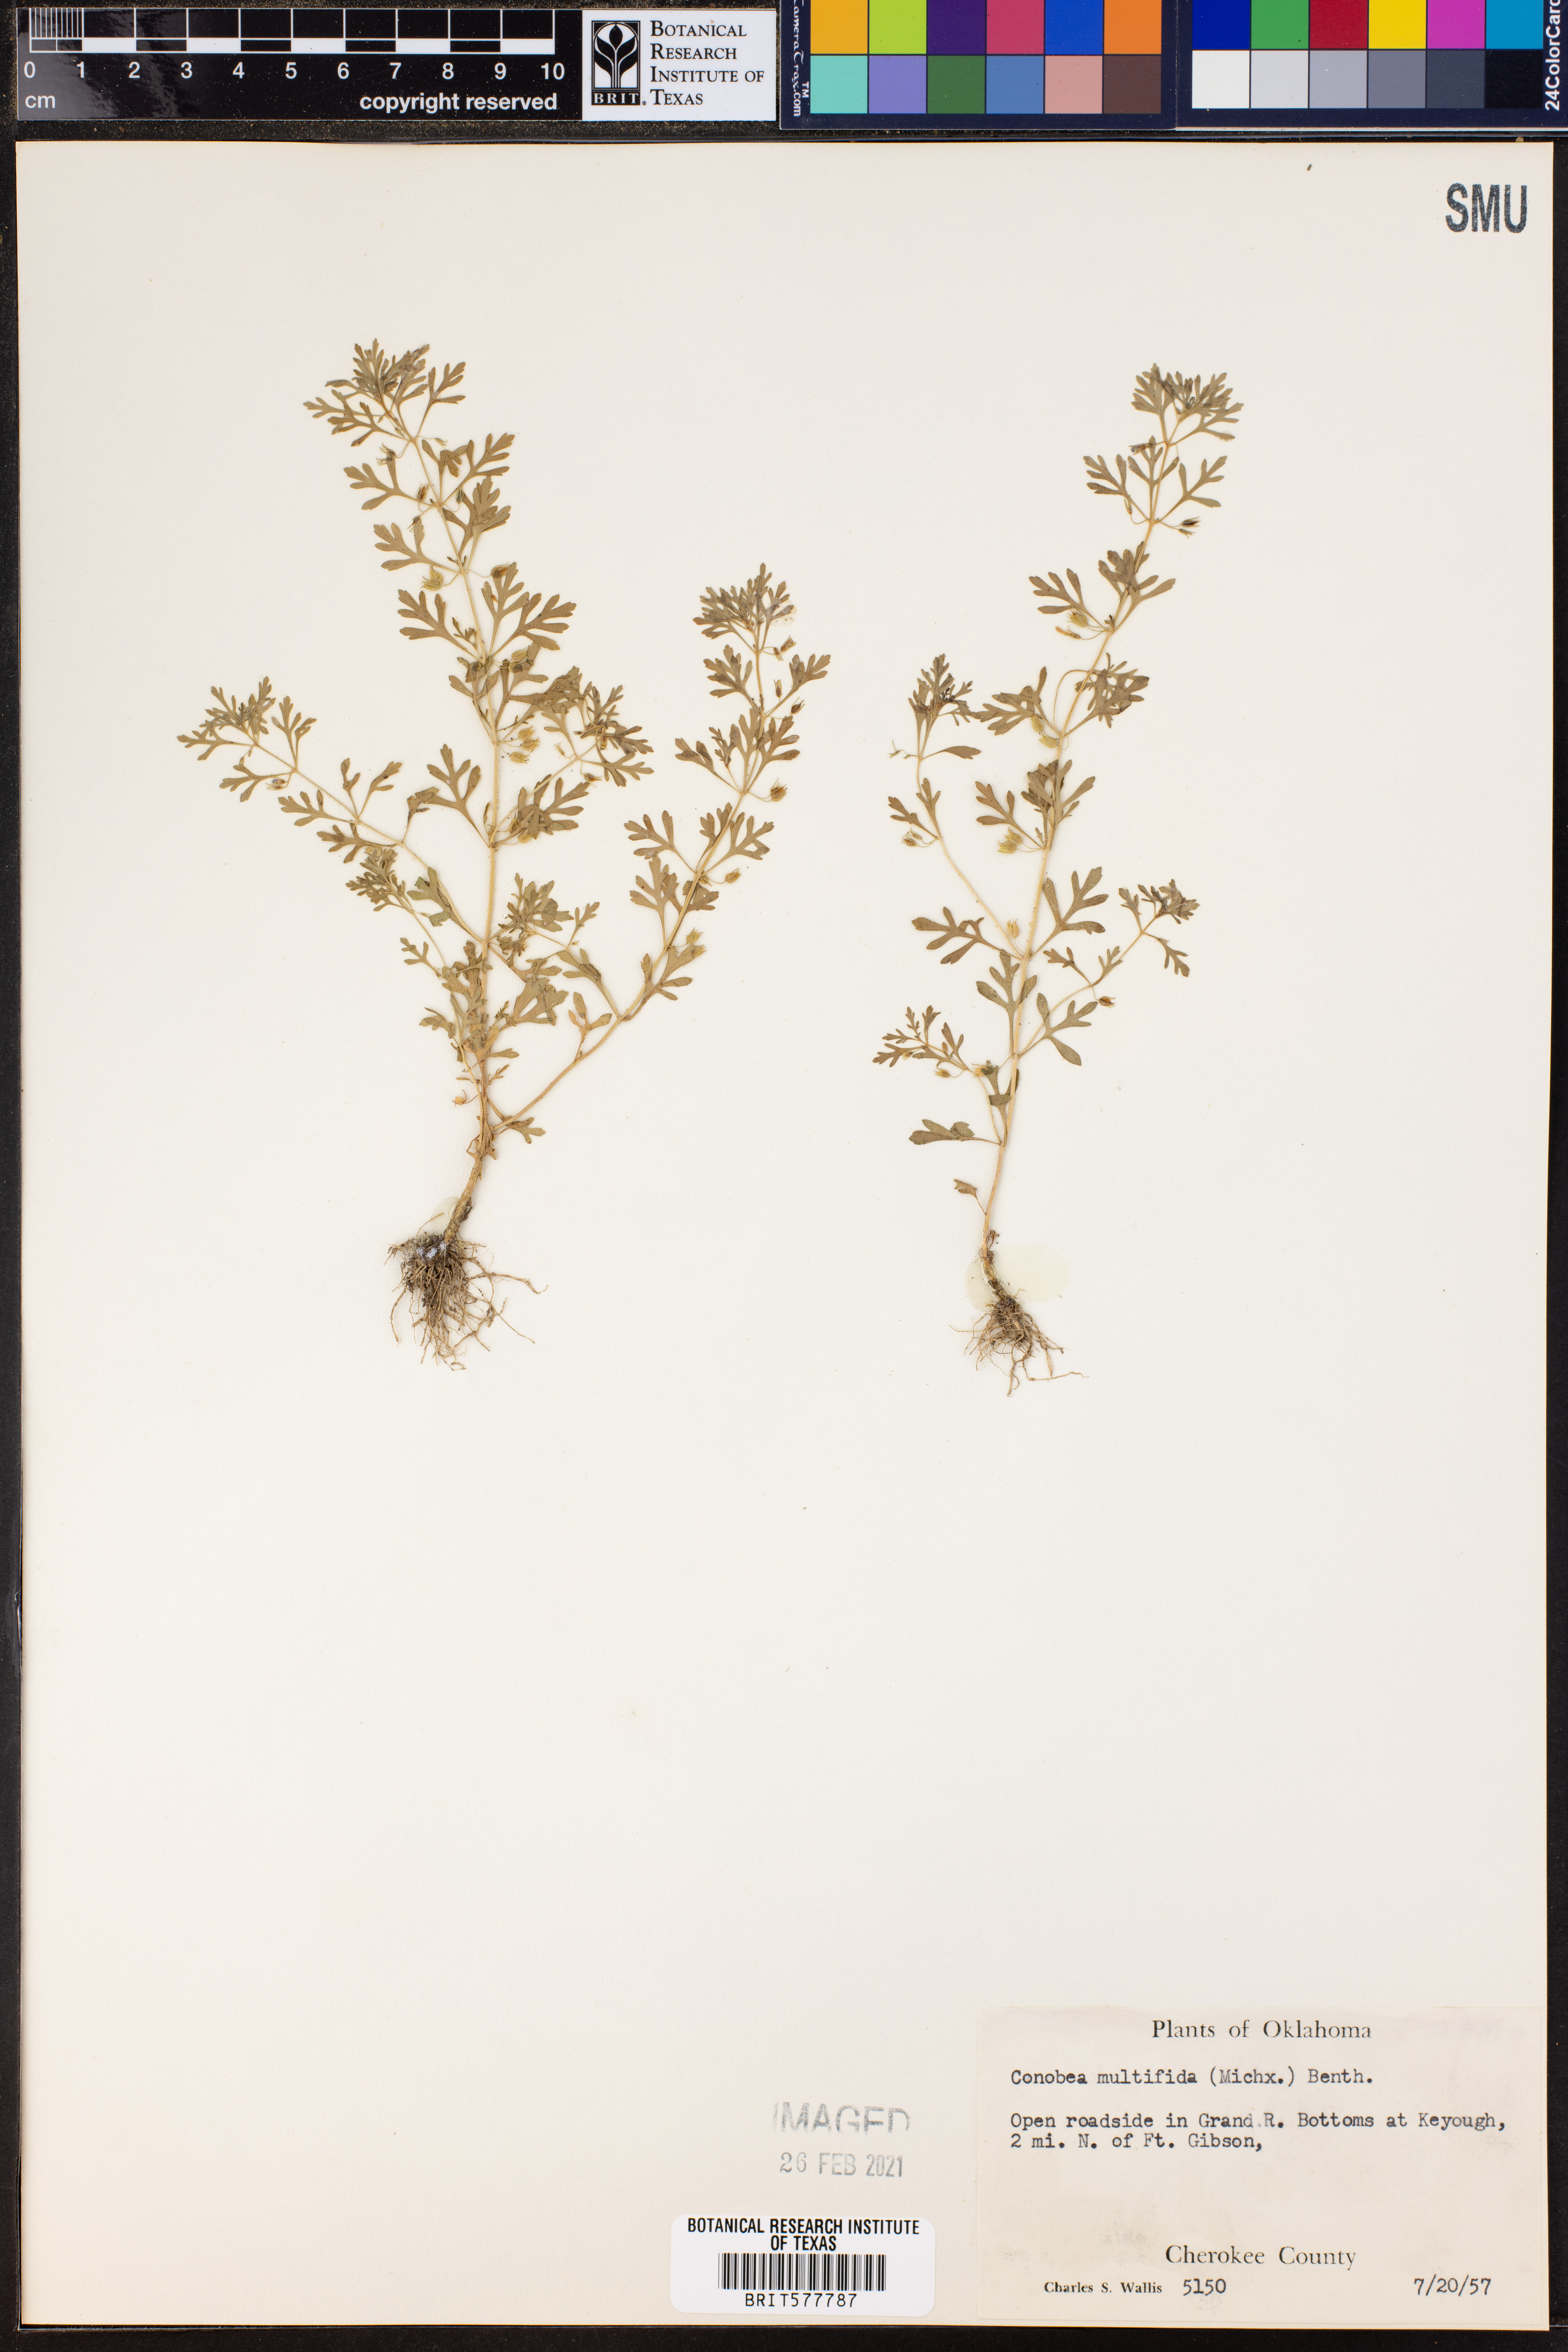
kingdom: Plantae
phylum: Tracheophyta
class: Magnoliopsida
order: Lamiales
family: Plantaginaceae
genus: Leucospora
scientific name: Leucospora multifida
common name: Narrow-leaf paleseed
